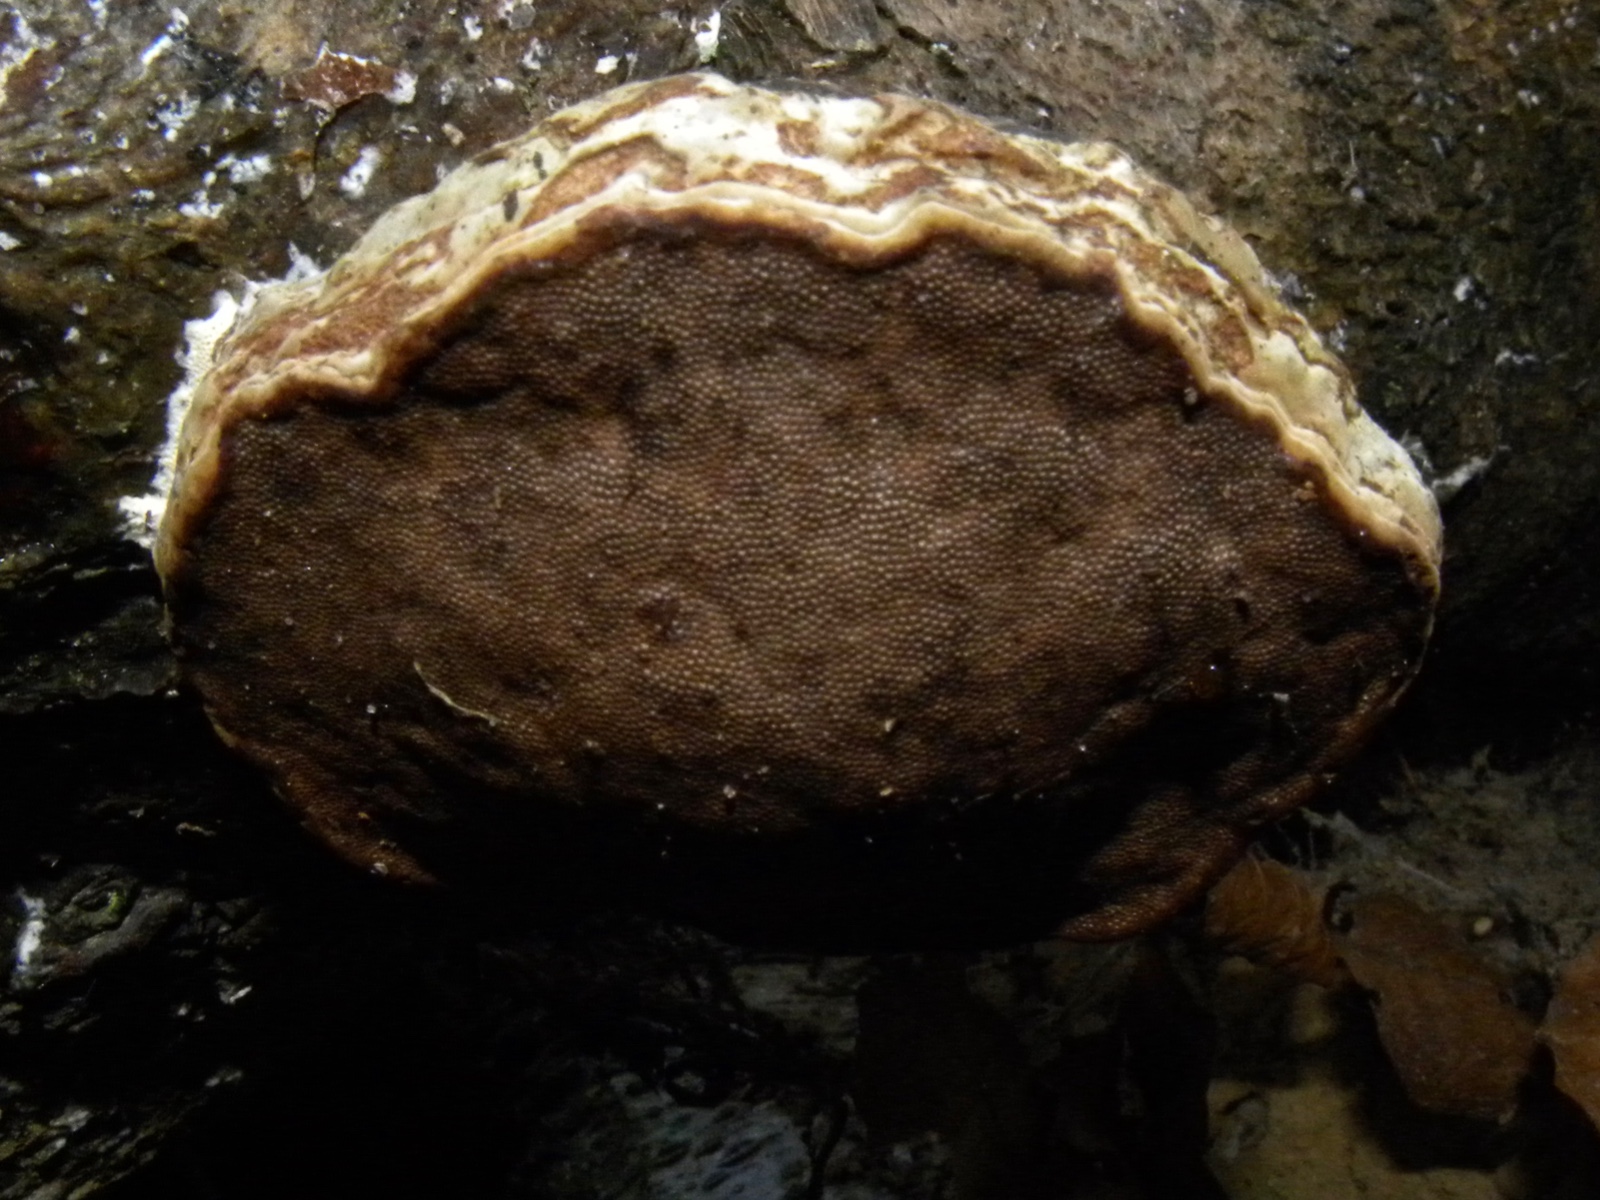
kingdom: Fungi
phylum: Basidiomycota
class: Agaricomycetes
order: Polyporales
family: Polyporaceae
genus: Fomes
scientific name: Fomes fomentarius
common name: tøndersvamp
